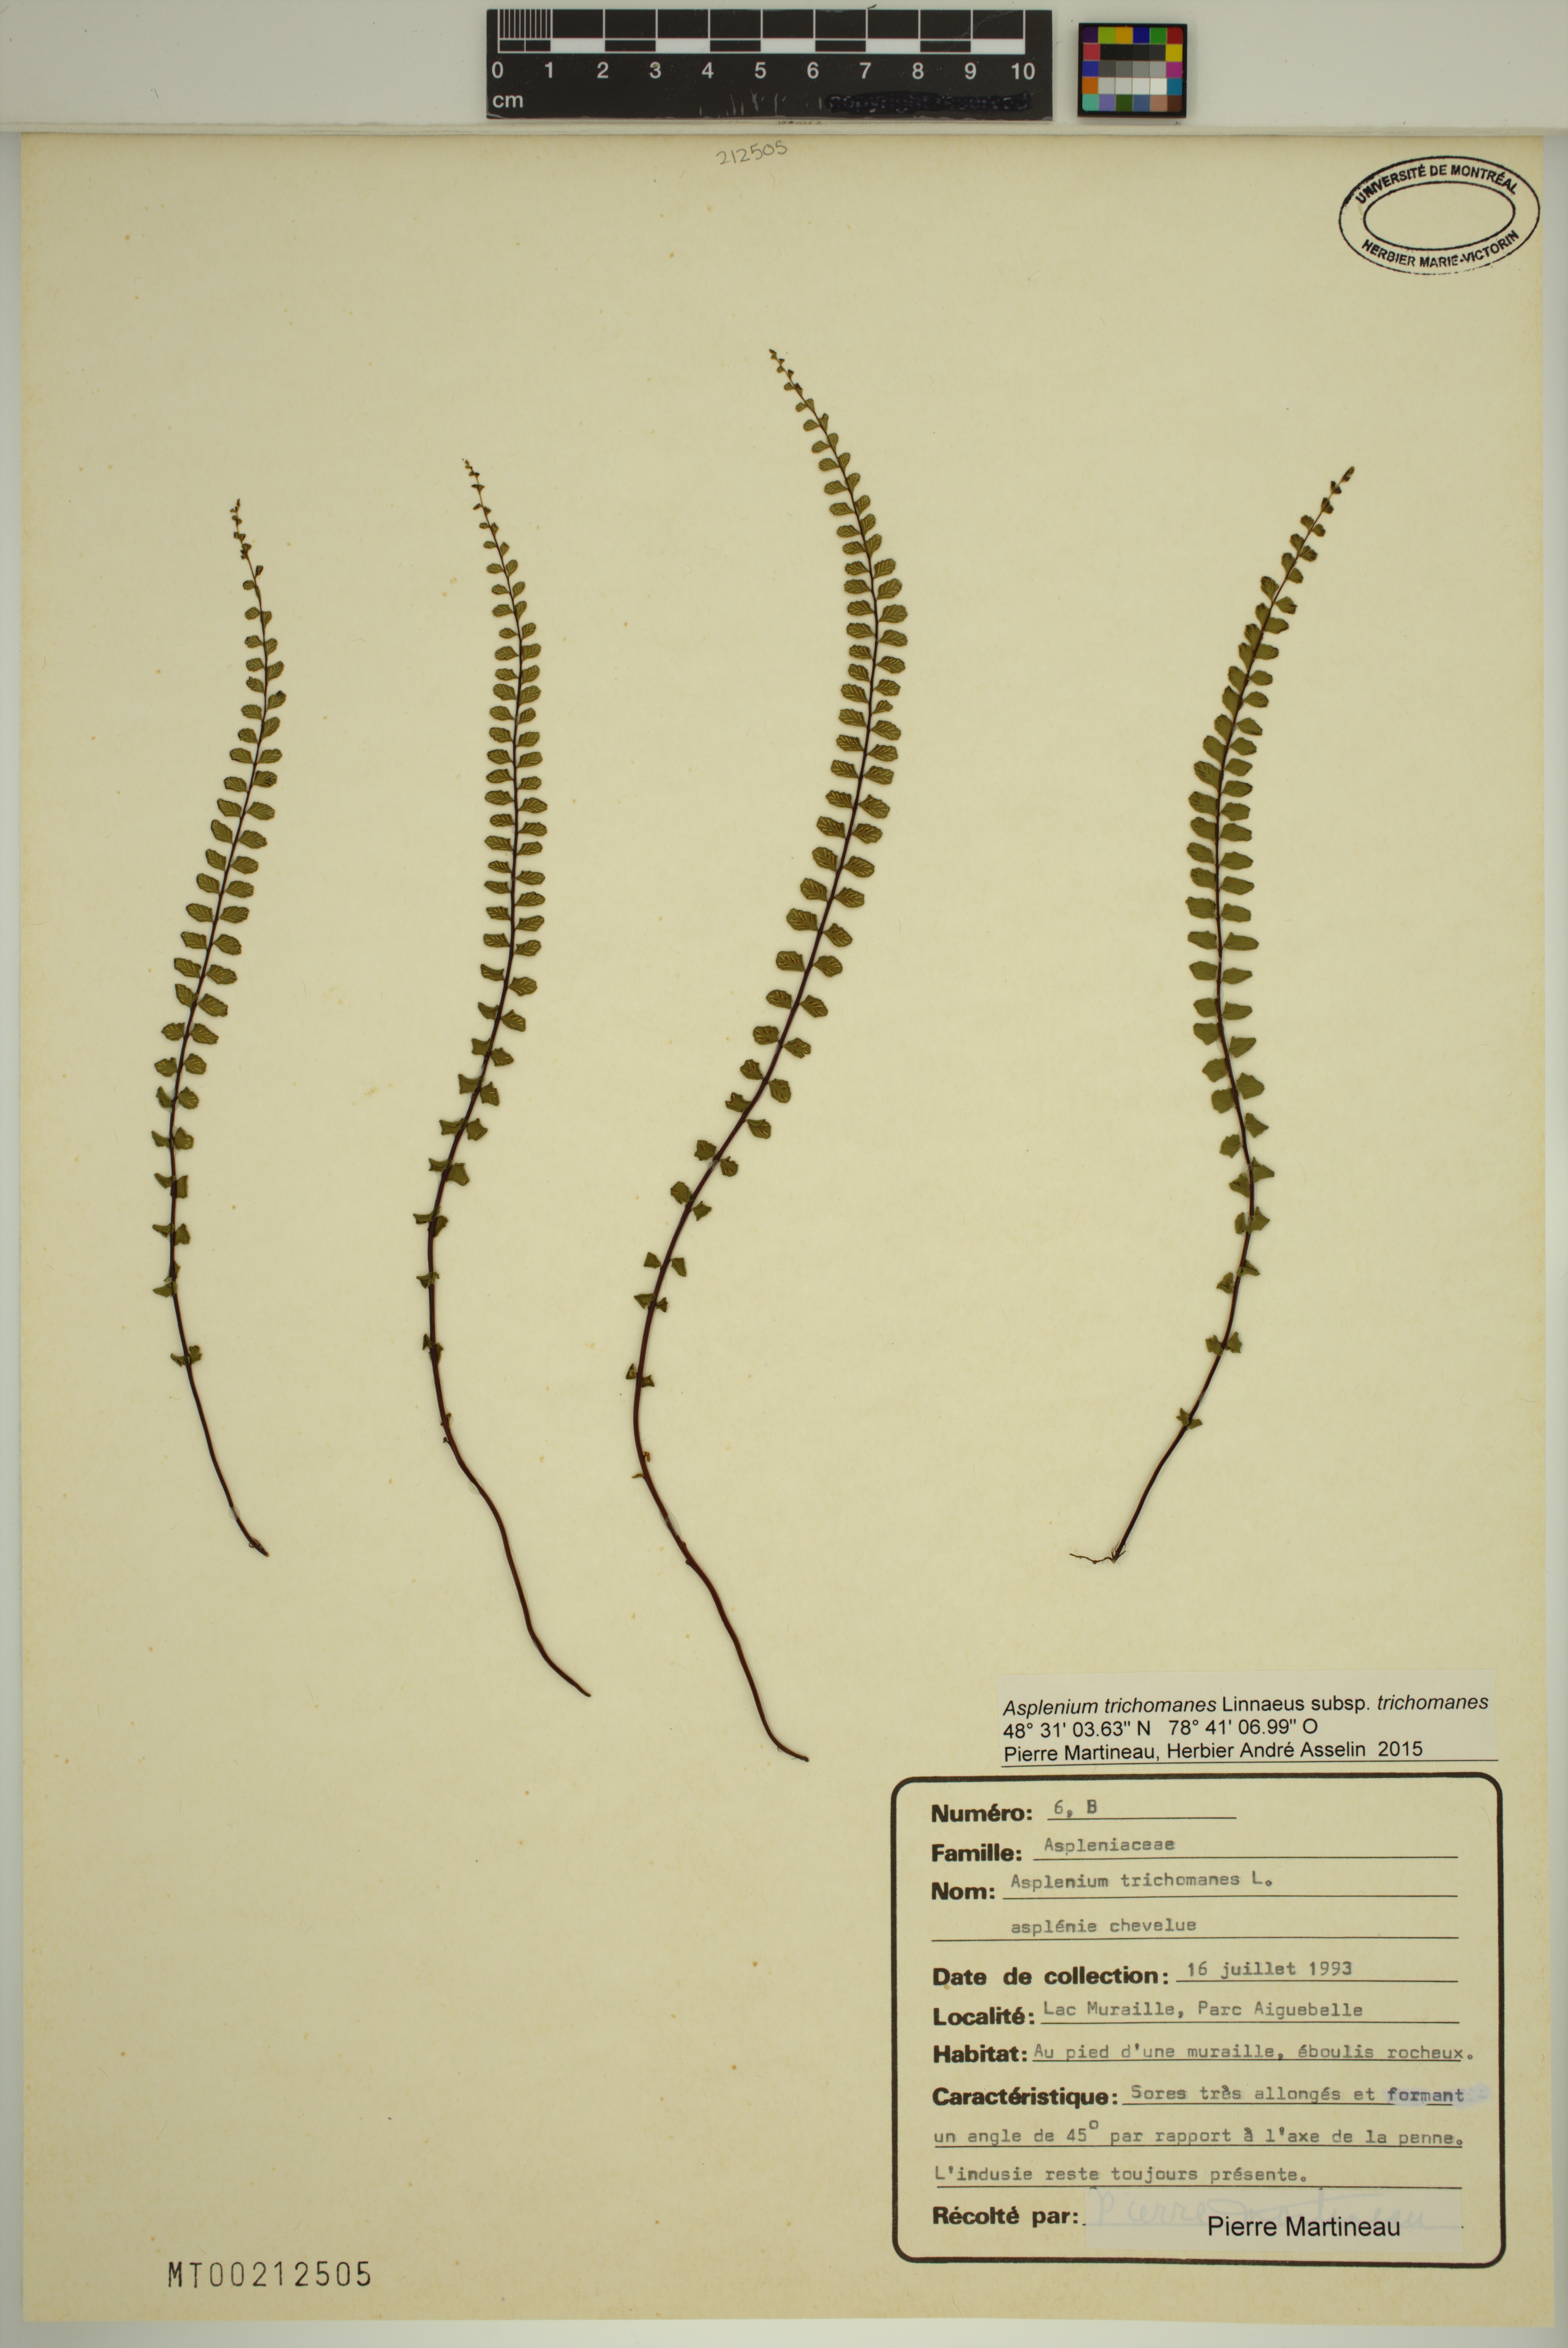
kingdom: Plantae
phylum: Tracheophyta
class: Polypodiopsida
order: Polypodiales
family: Aspleniaceae
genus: Asplenium
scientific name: Asplenium trichomanes
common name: Maidenhair spleenwort
